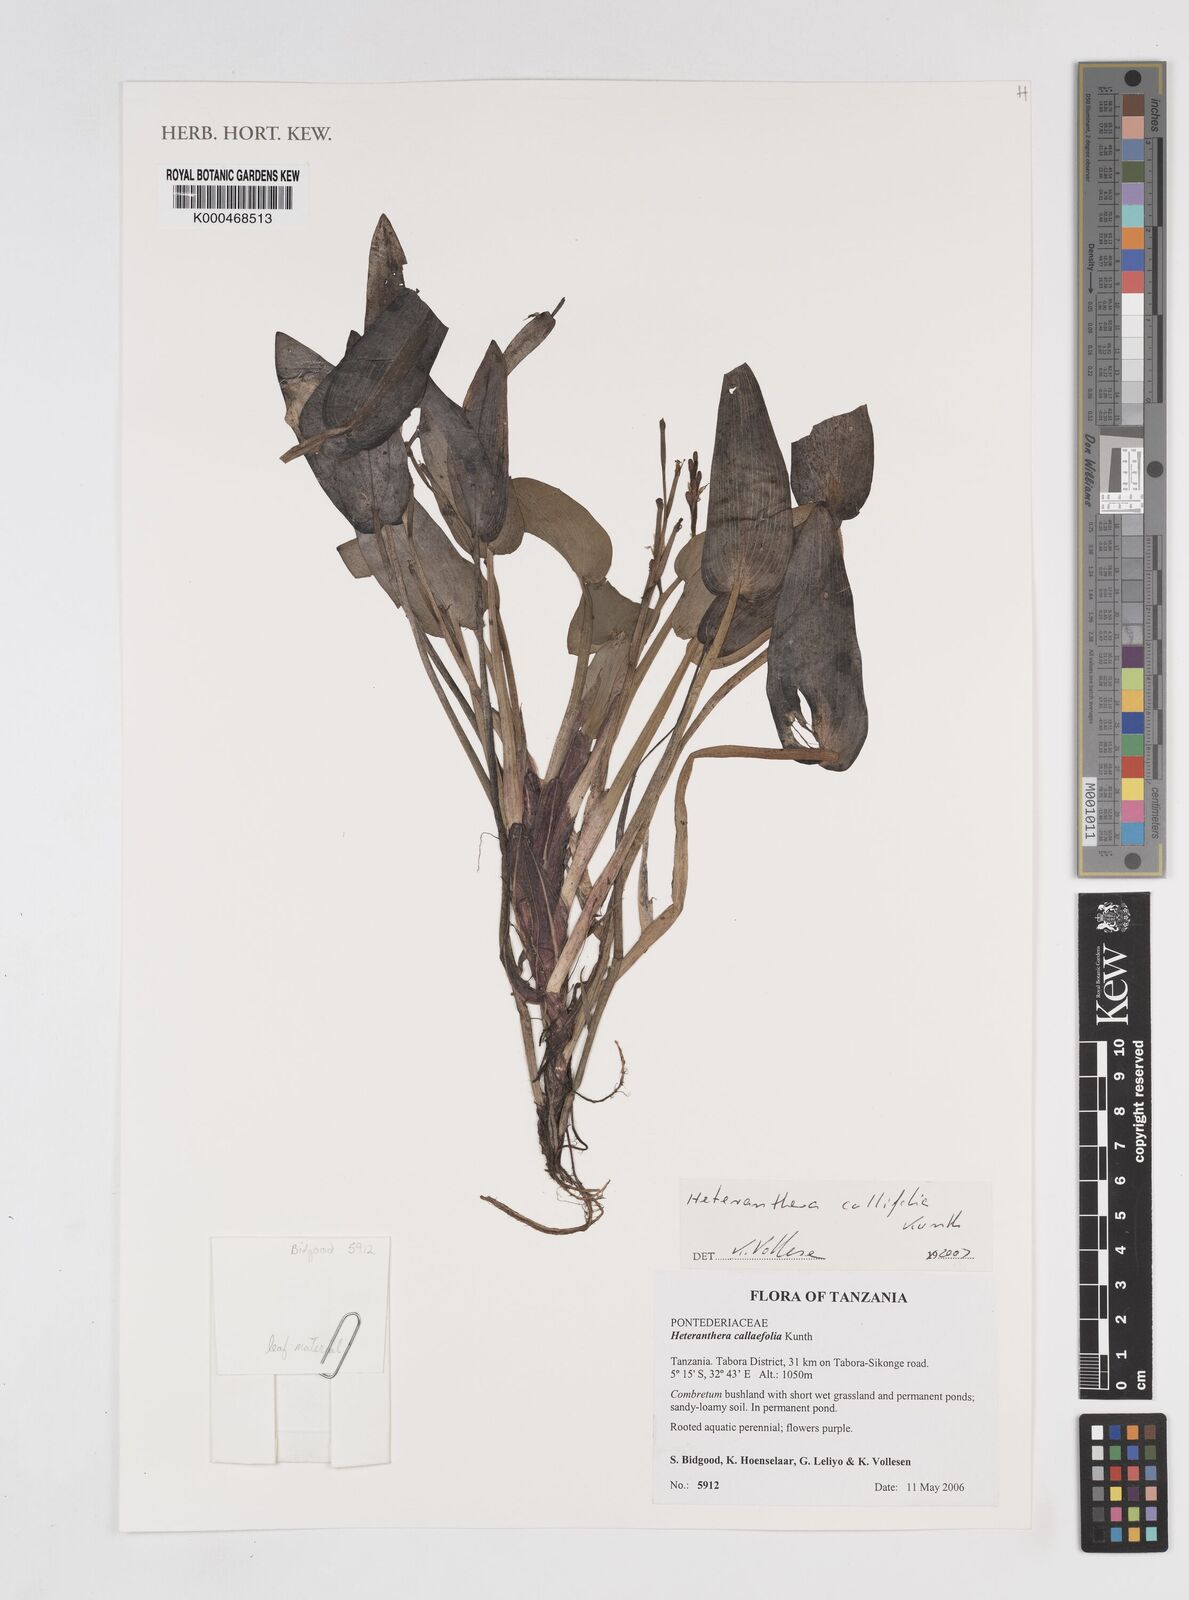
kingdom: Plantae
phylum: Tracheophyta
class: Liliopsida
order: Commelinales
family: Pontederiaceae
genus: Heteranthera
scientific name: Heteranthera callifolia
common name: Mud plantain
